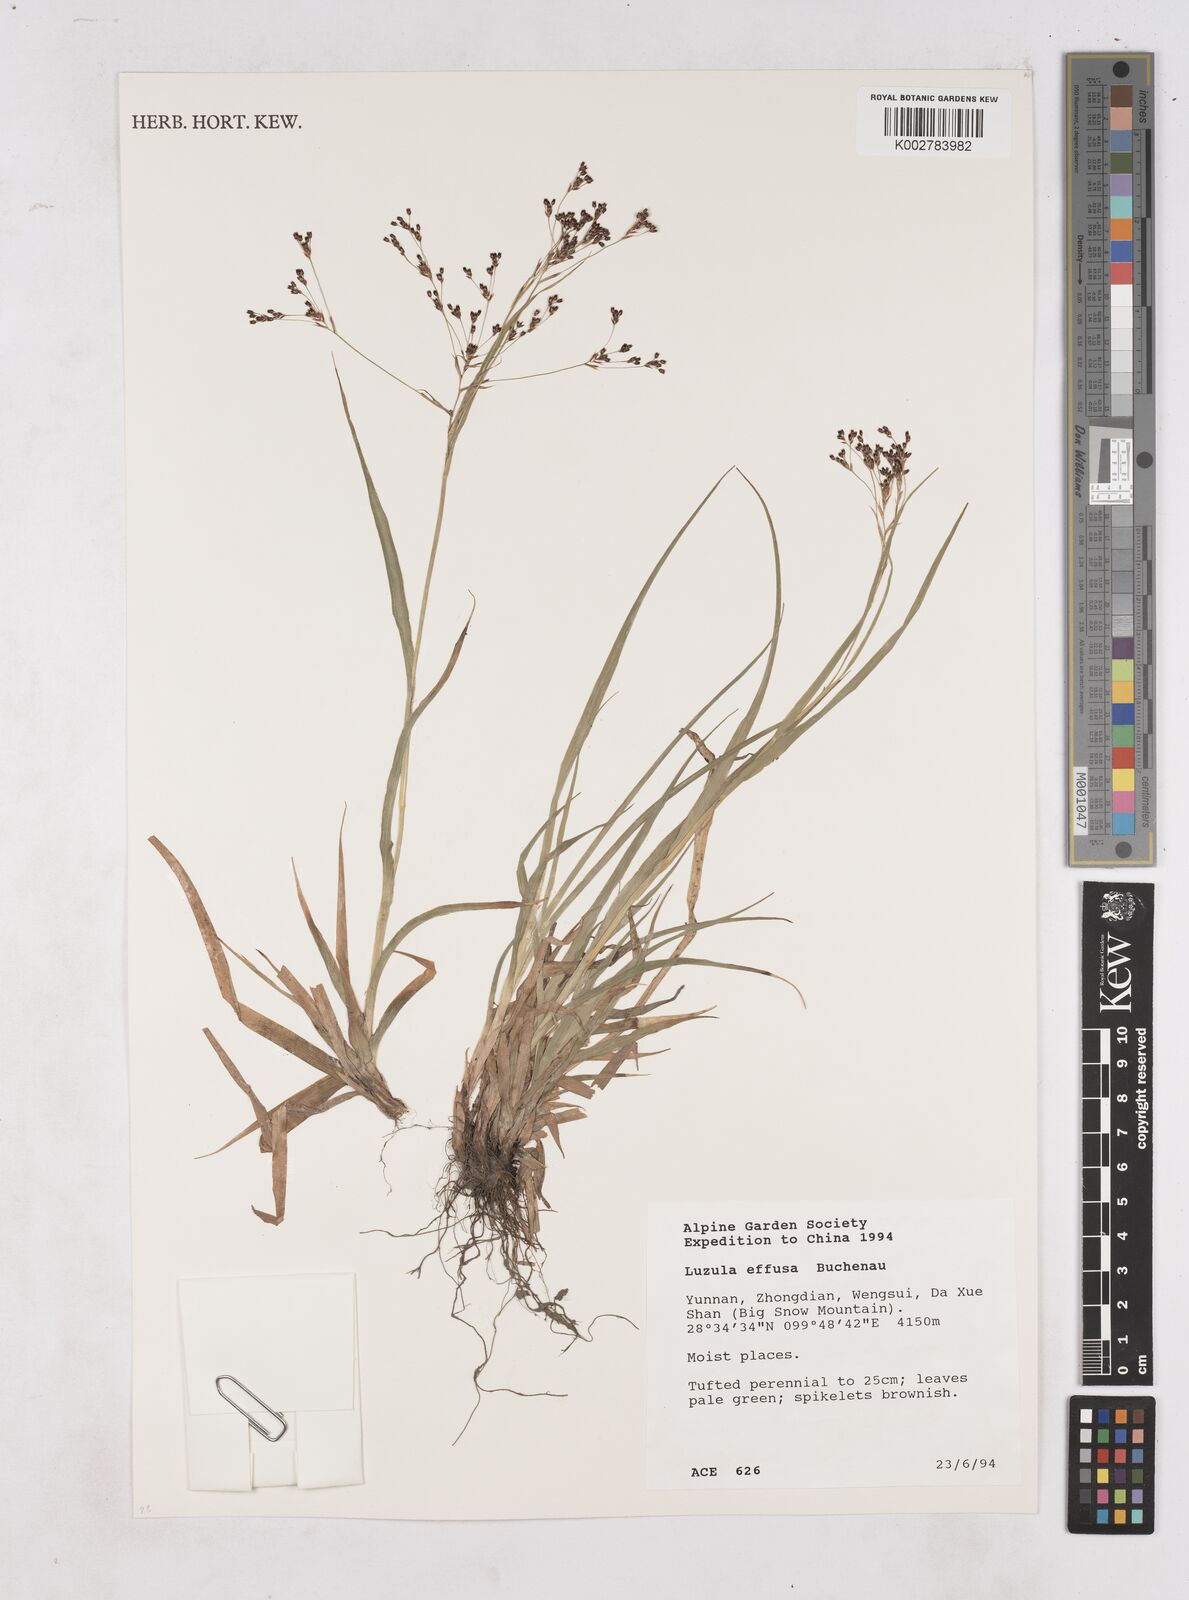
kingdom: Plantae
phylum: Tracheophyta
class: Liliopsida
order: Poales
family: Juncaceae
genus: Luzula
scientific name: Luzula effusa
